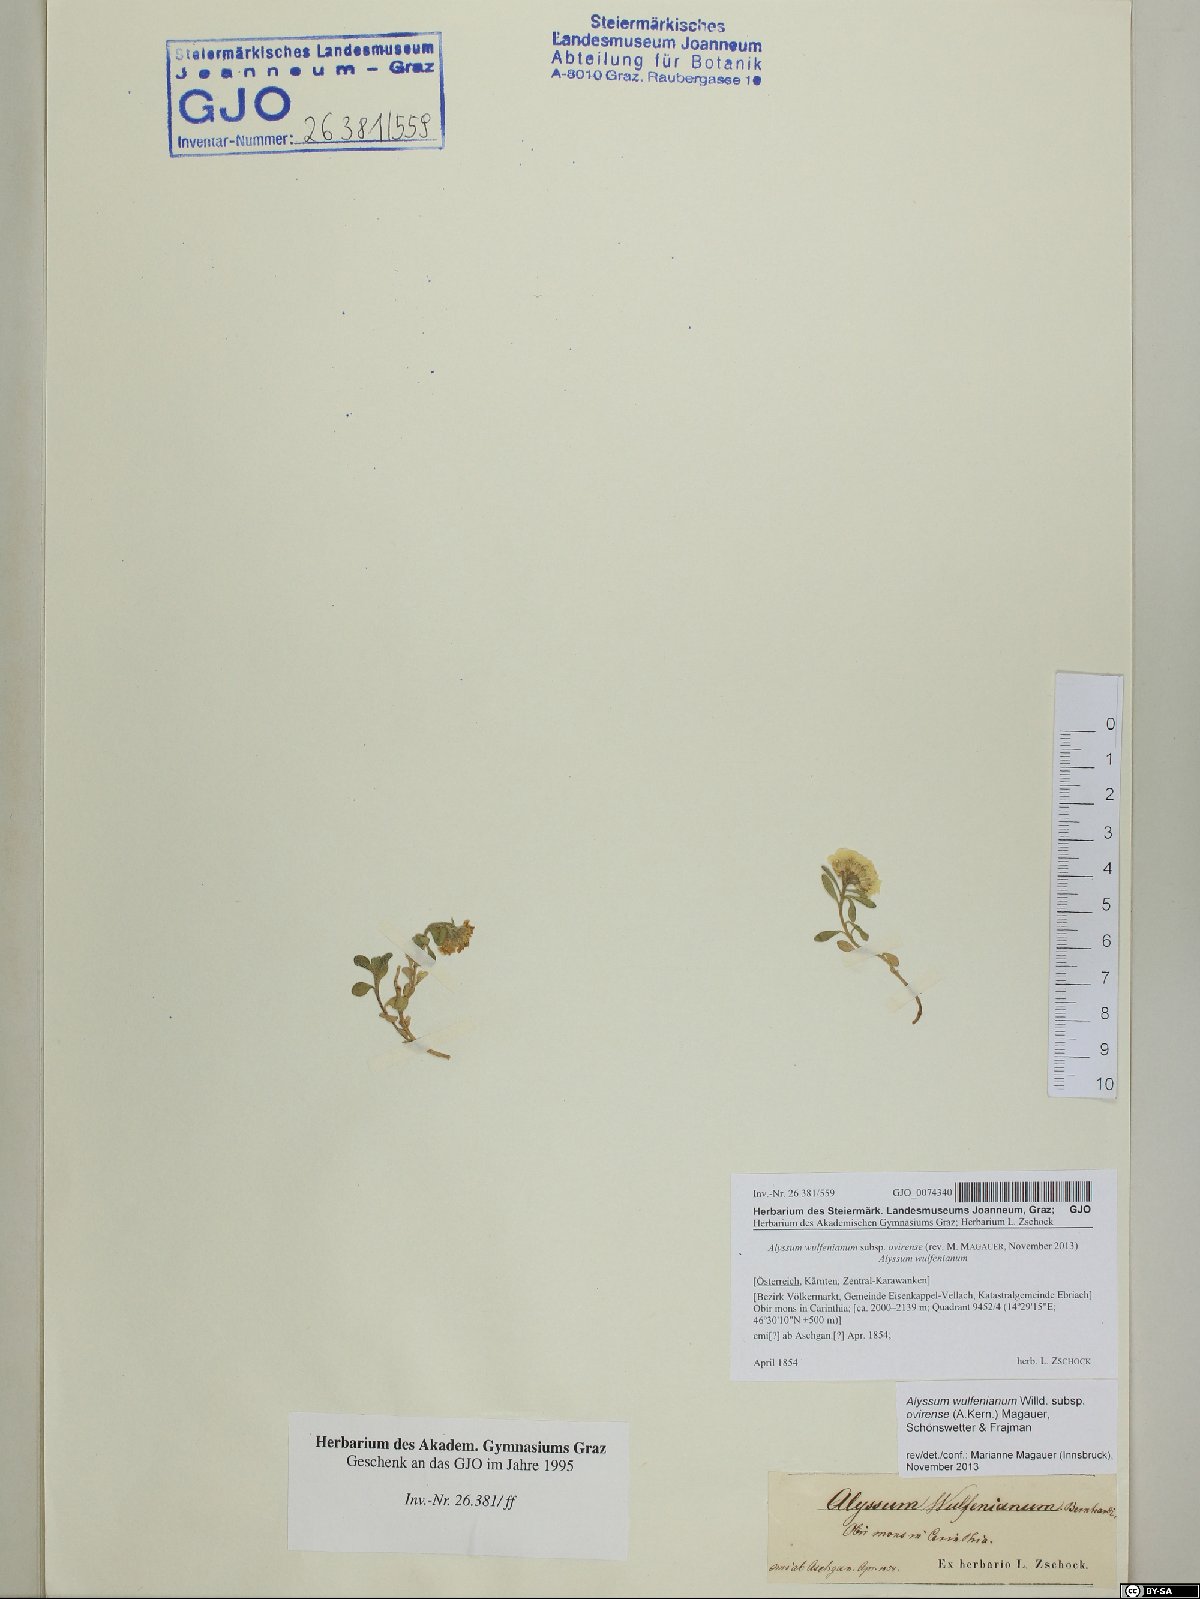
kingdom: Plantae
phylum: Tracheophyta
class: Magnoliopsida
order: Brassicales
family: Brassicaceae
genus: Alyssum
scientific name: Alyssum wulfenianum
